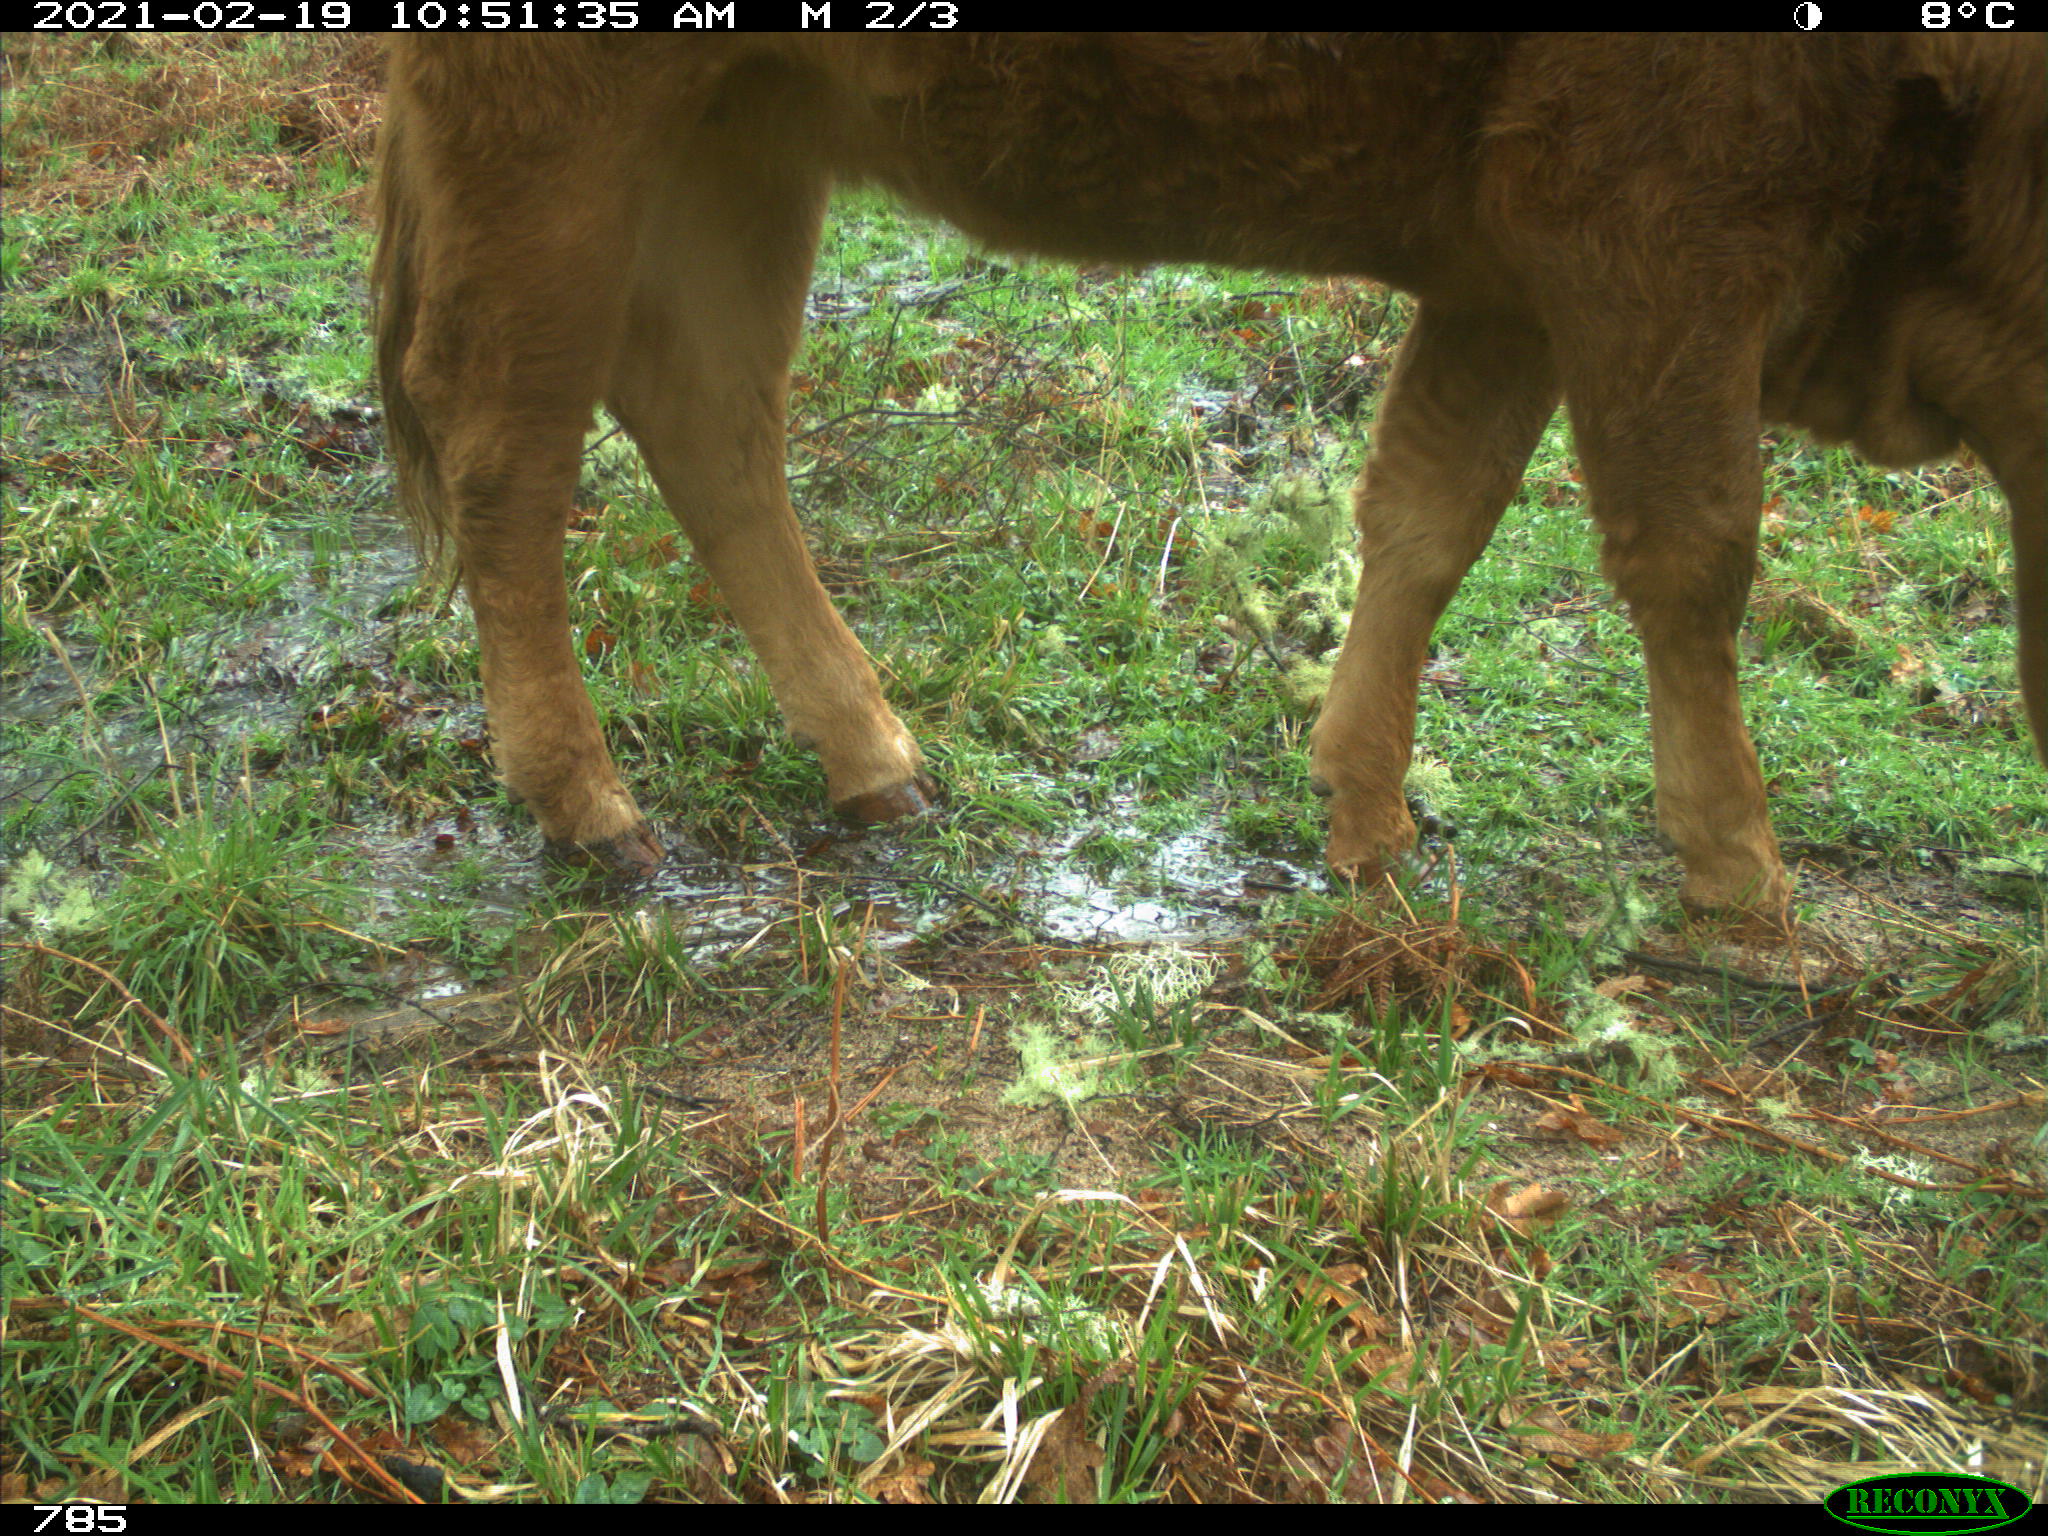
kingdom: Animalia
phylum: Chordata
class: Mammalia
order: Artiodactyla
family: Bovidae
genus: Bos
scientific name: Bos taurus
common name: Domesticated cattle
